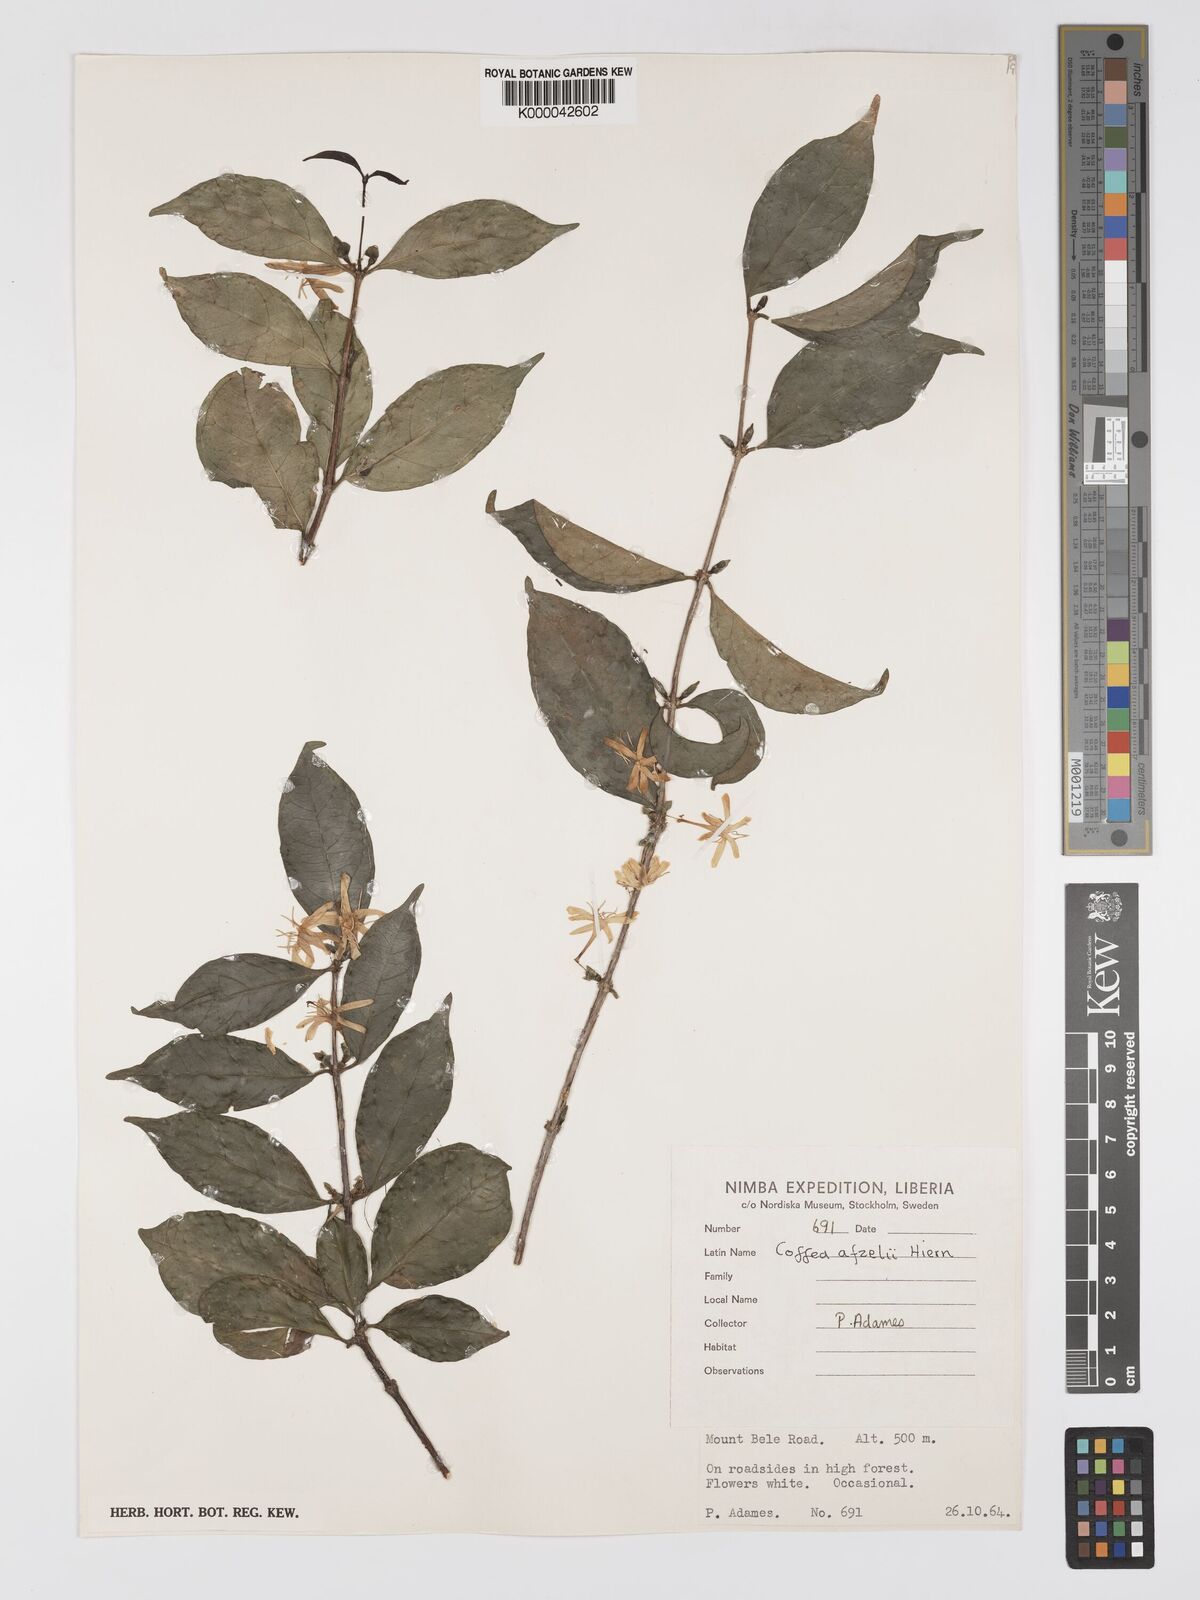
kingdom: Plantae
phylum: Tracheophyta
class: Magnoliopsida
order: Gentianales
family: Rubiaceae
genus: Argocoffeopsis
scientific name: Argocoffeopsis afzelii
